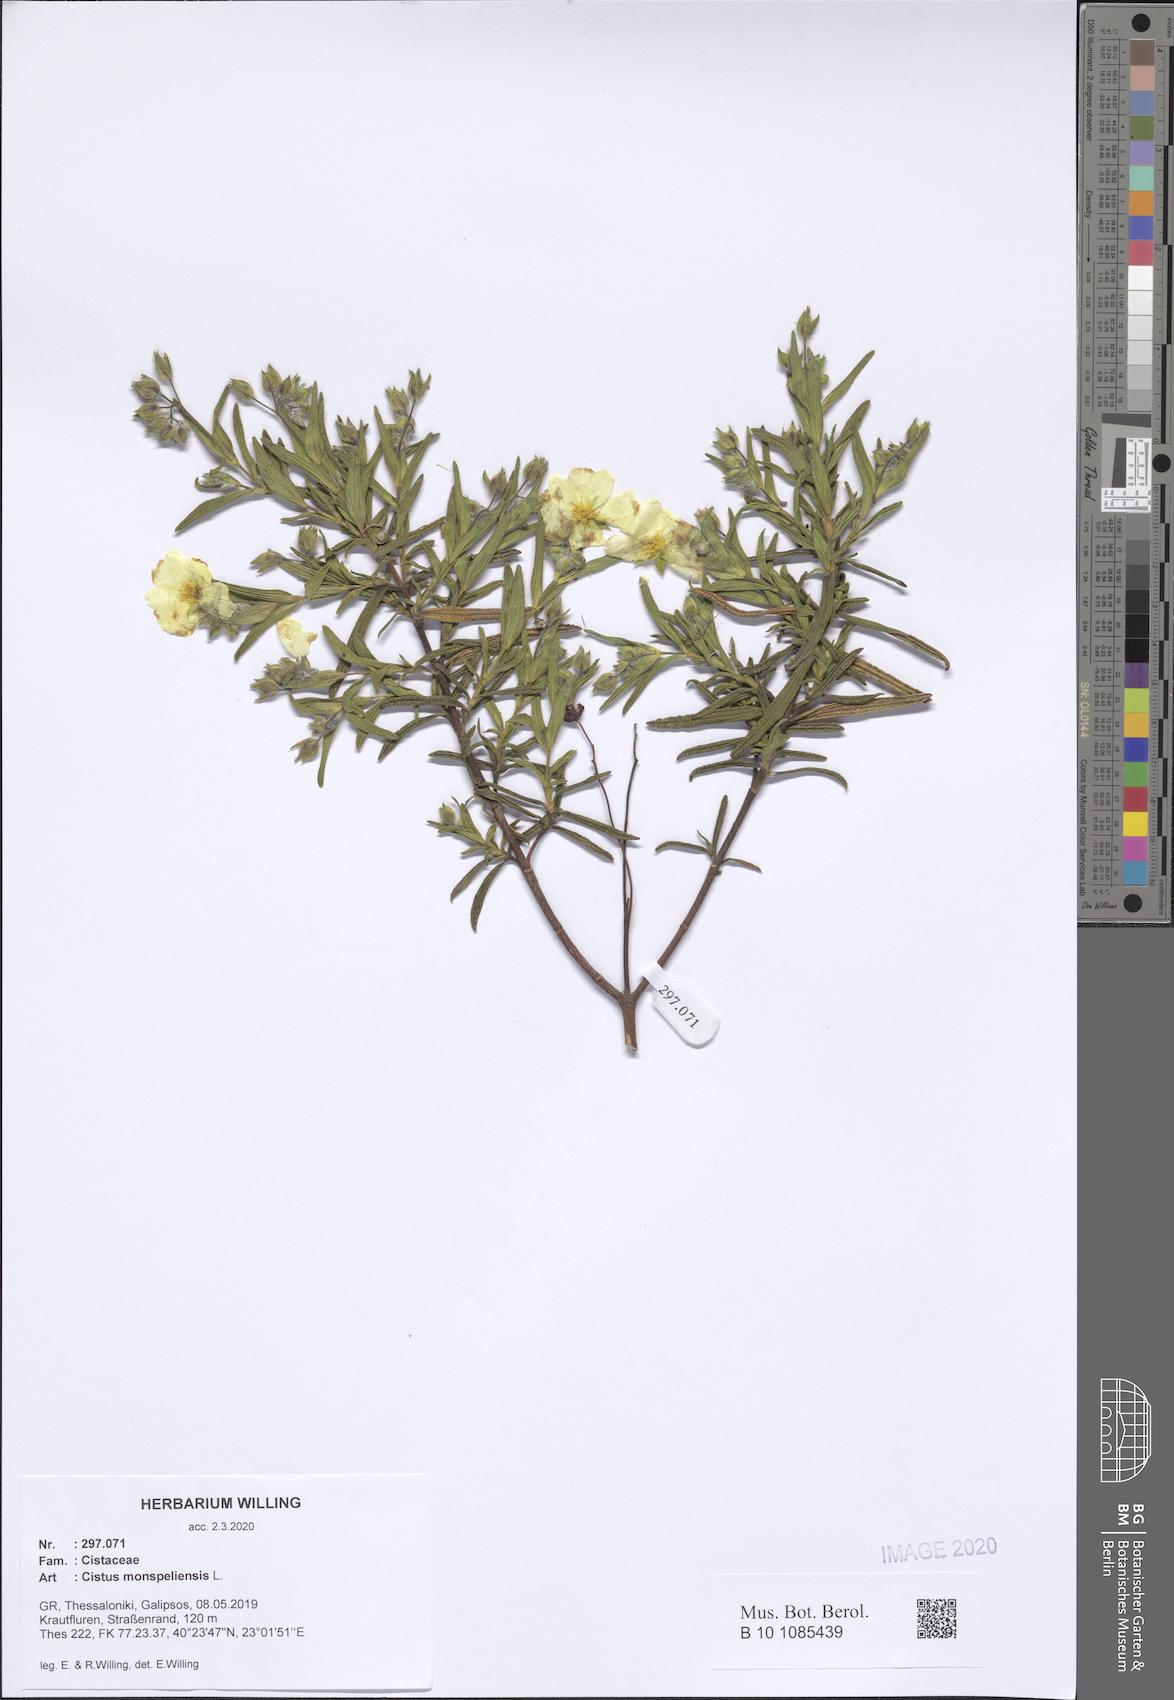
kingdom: Plantae
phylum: Tracheophyta
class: Magnoliopsida
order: Malvales
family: Cistaceae
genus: Cistus
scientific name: Cistus monspeliensis
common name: Montpelier cistus
